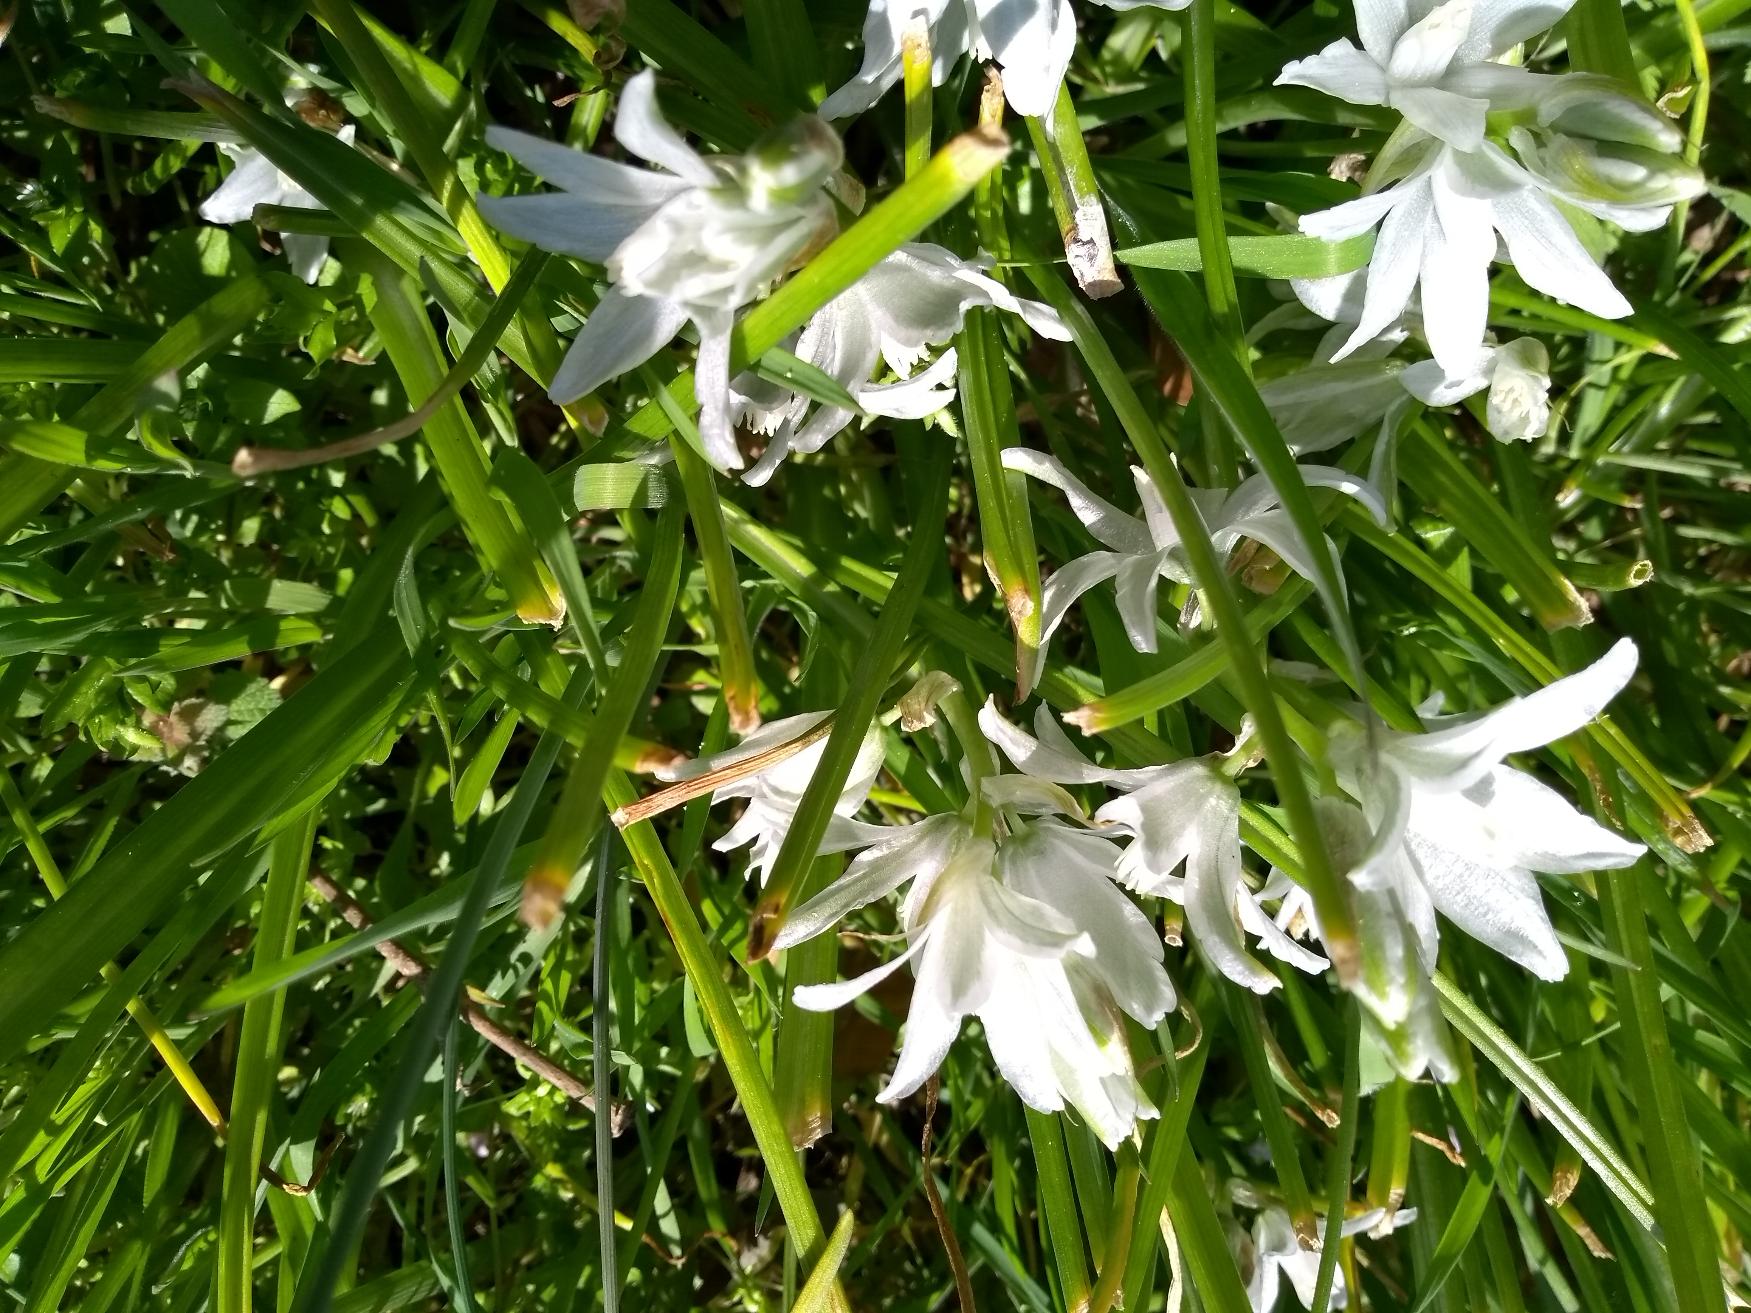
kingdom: Plantae
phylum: Tracheophyta
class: Liliopsida
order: Asparagales
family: Asparagaceae
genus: Ornithogalum
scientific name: Ornithogalum nutans
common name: Nikkende fuglemælk
